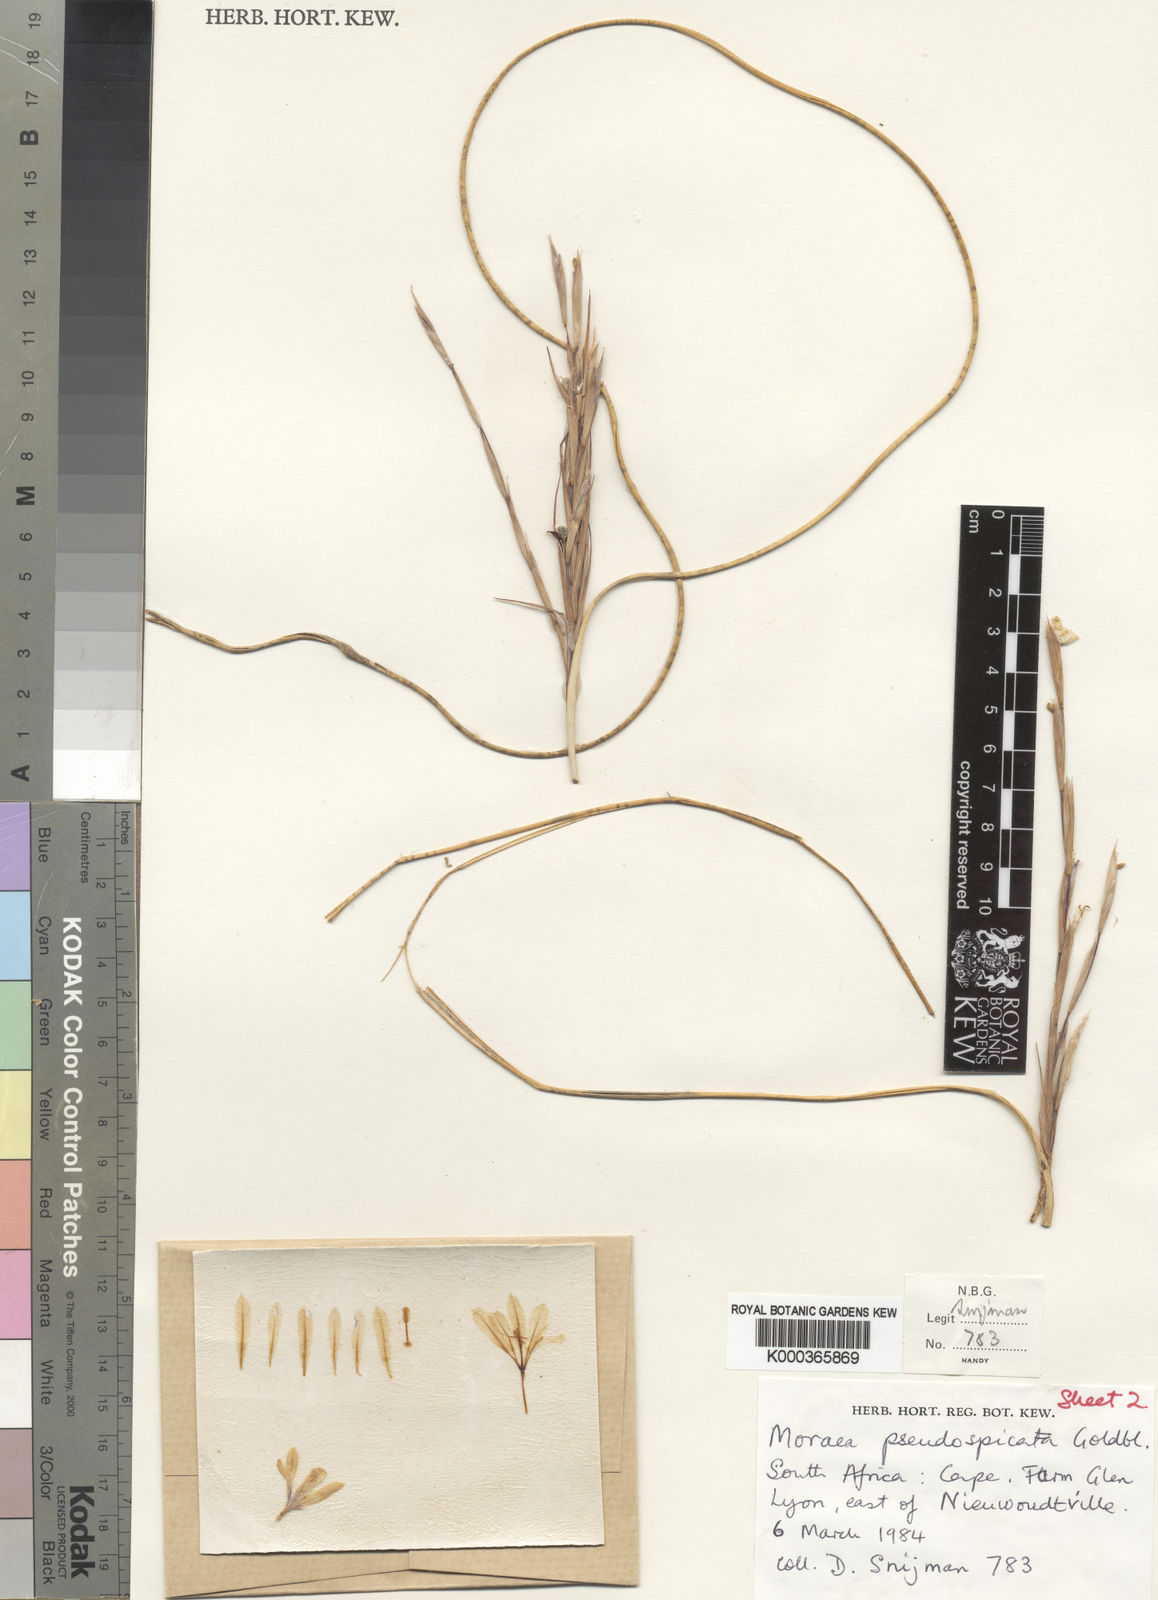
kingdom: Plantae
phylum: Tracheophyta
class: Liliopsida
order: Asparagales
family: Iridaceae
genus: Moraea
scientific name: Moraea pseudospicata
